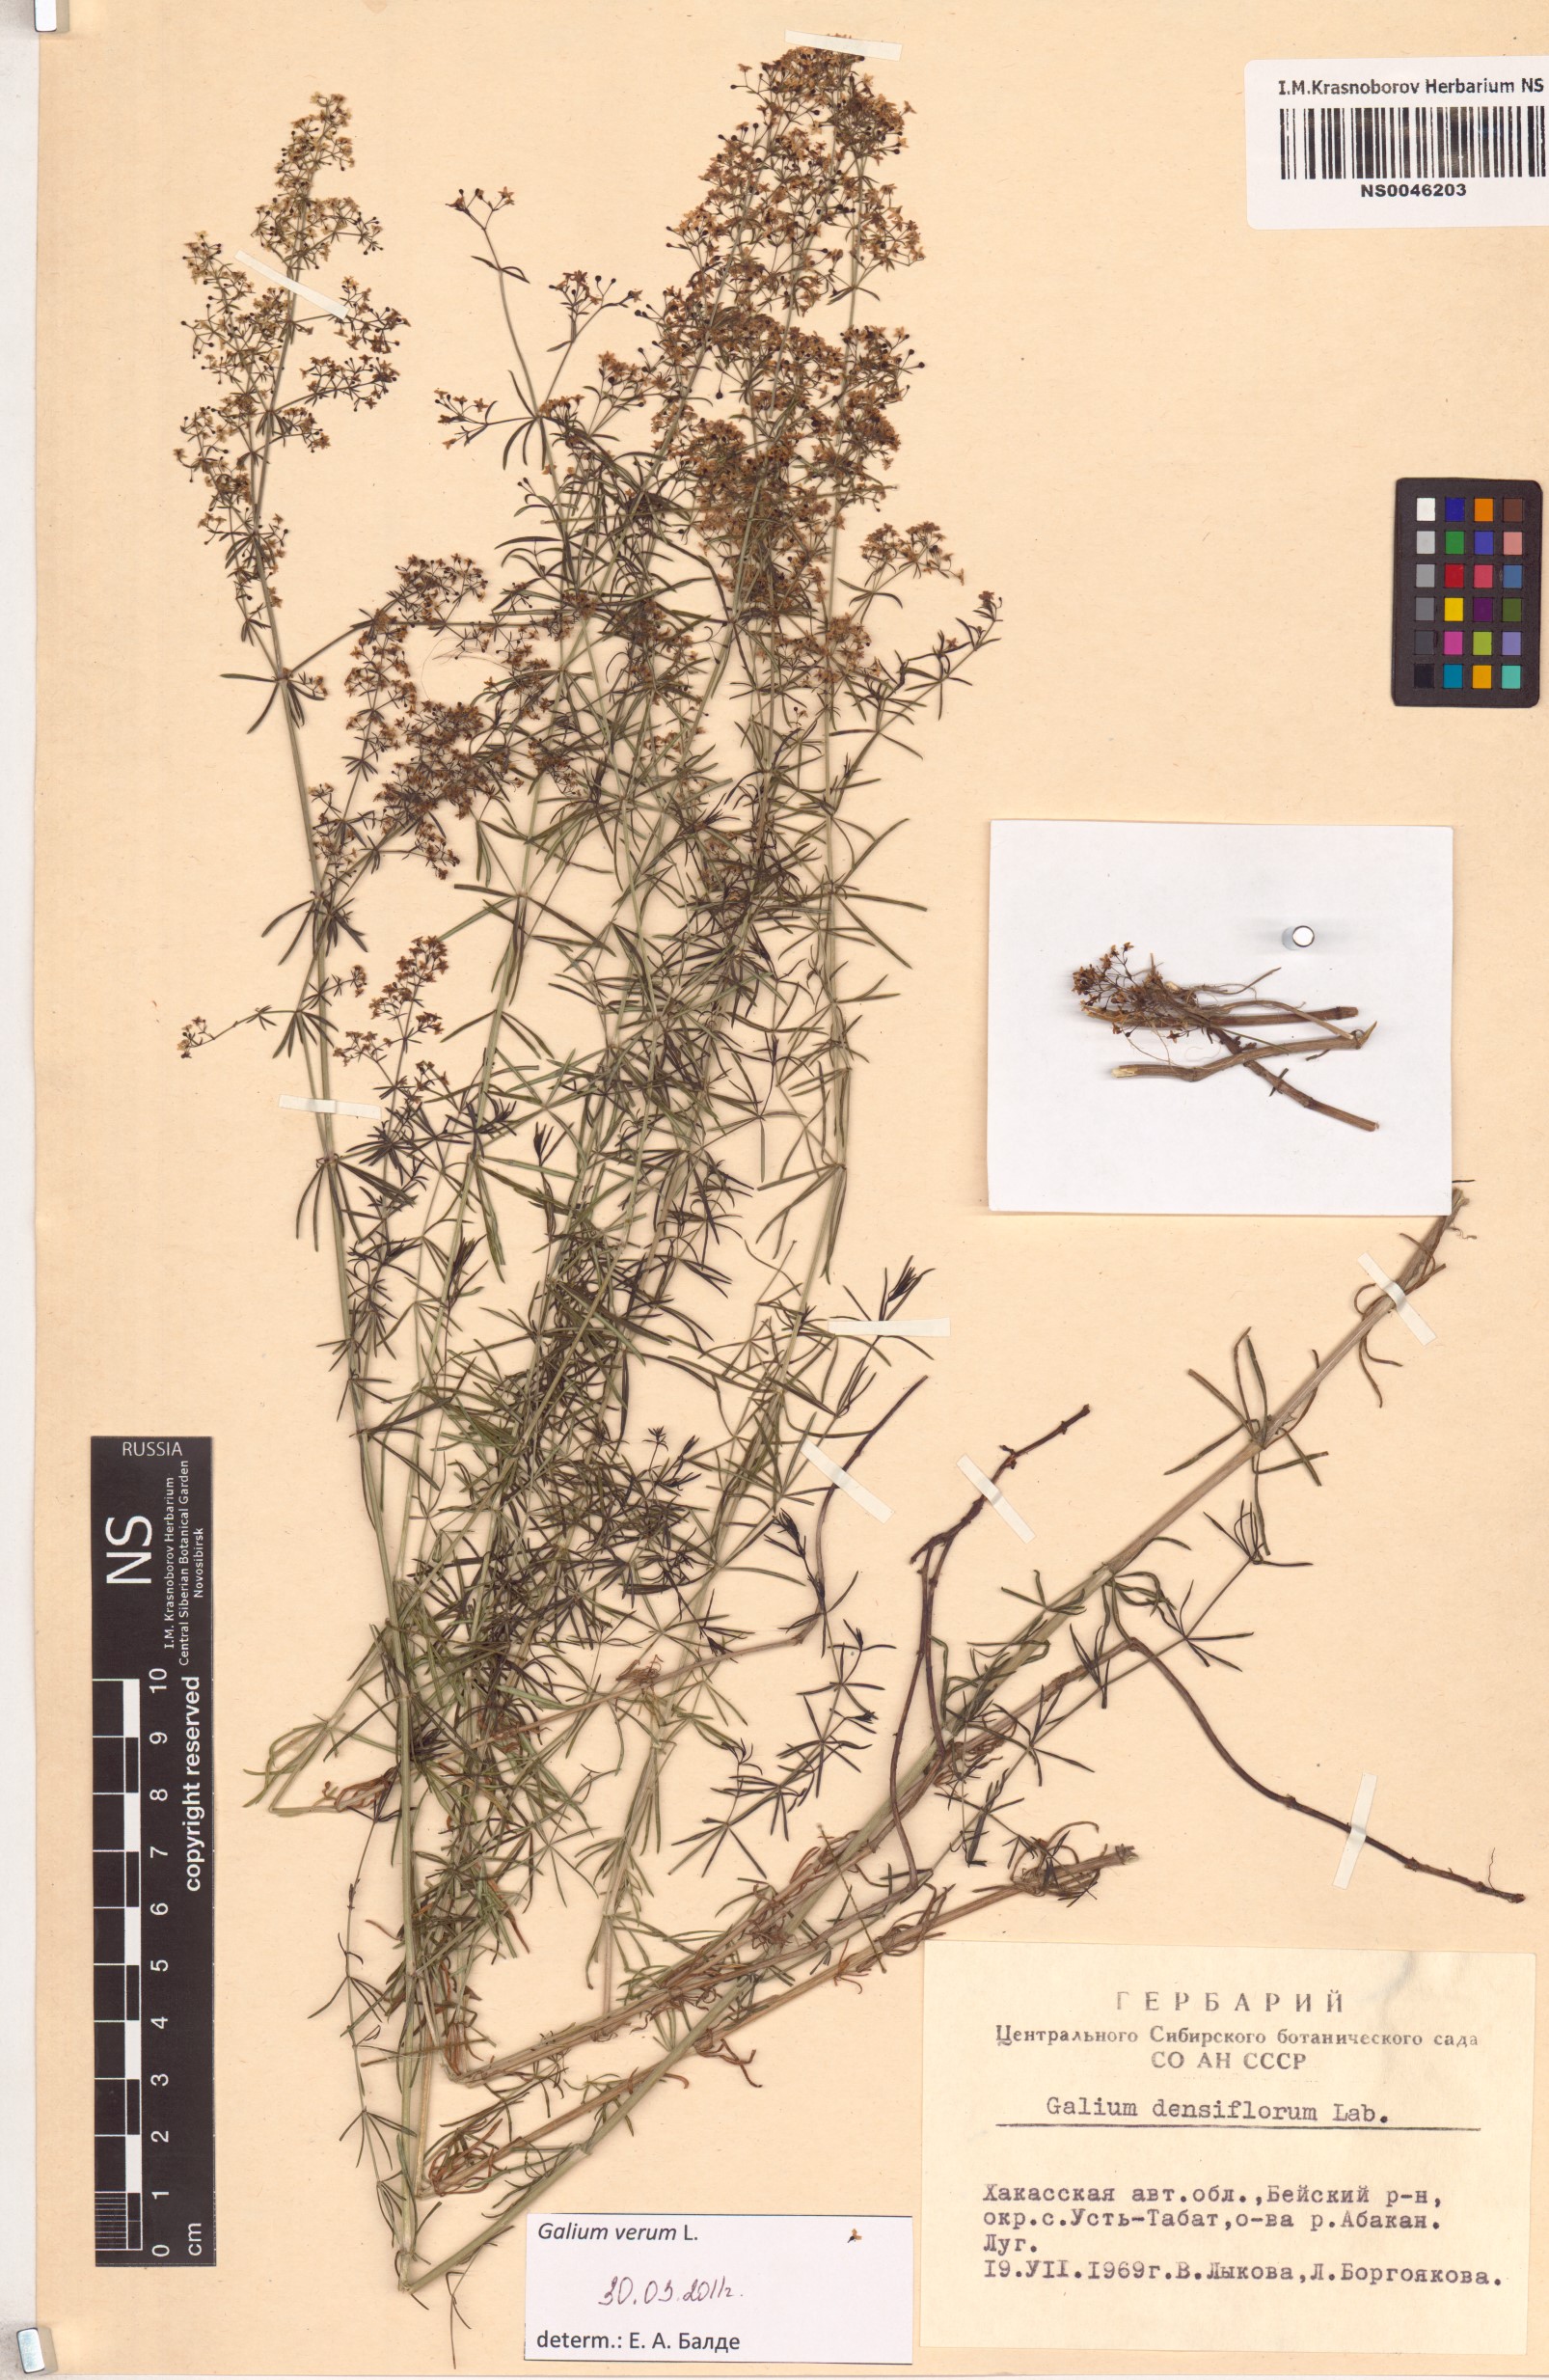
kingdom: Plantae
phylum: Tracheophyta
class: Magnoliopsida
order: Gentianales
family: Rubiaceae
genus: Galium
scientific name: Galium verum
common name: Lady's bedstraw
